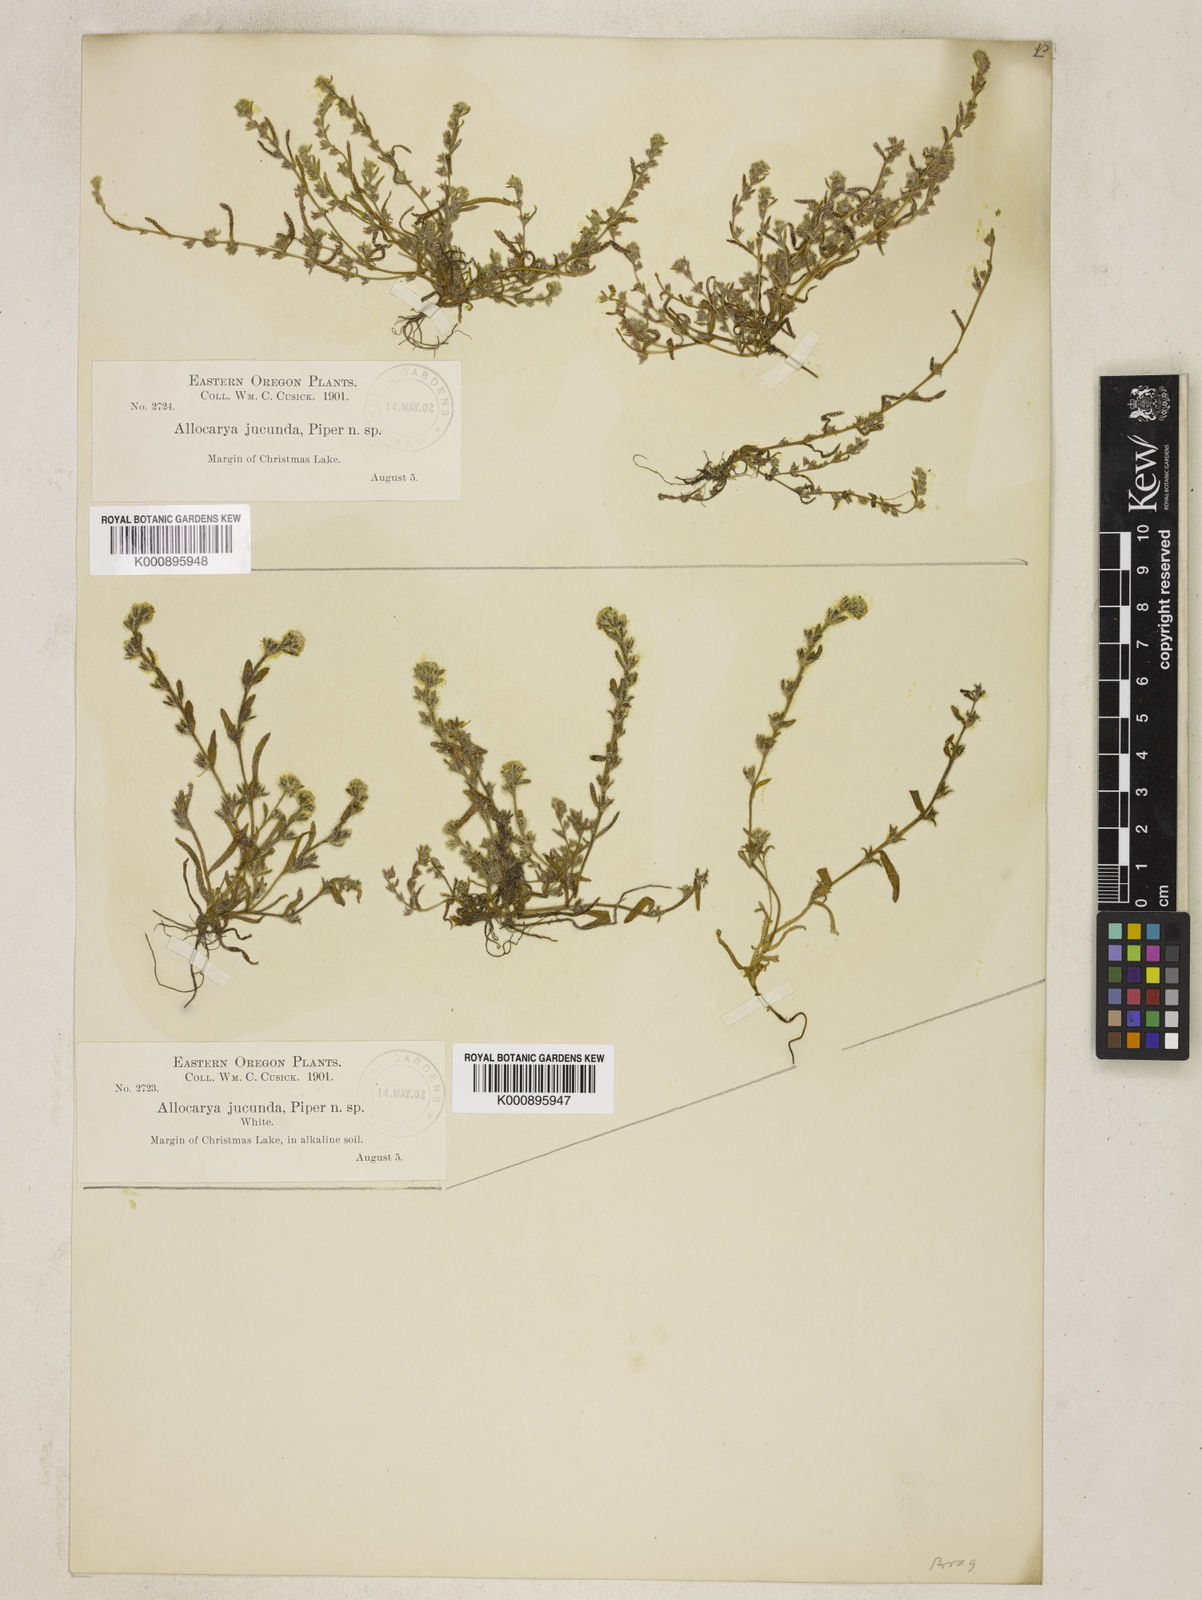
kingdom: Plantae
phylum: Tracheophyta
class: Magnoliopsida
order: Boraginales
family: Boraginaceae
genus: Plagiobothrys
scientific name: Plagiobothrys salsus
